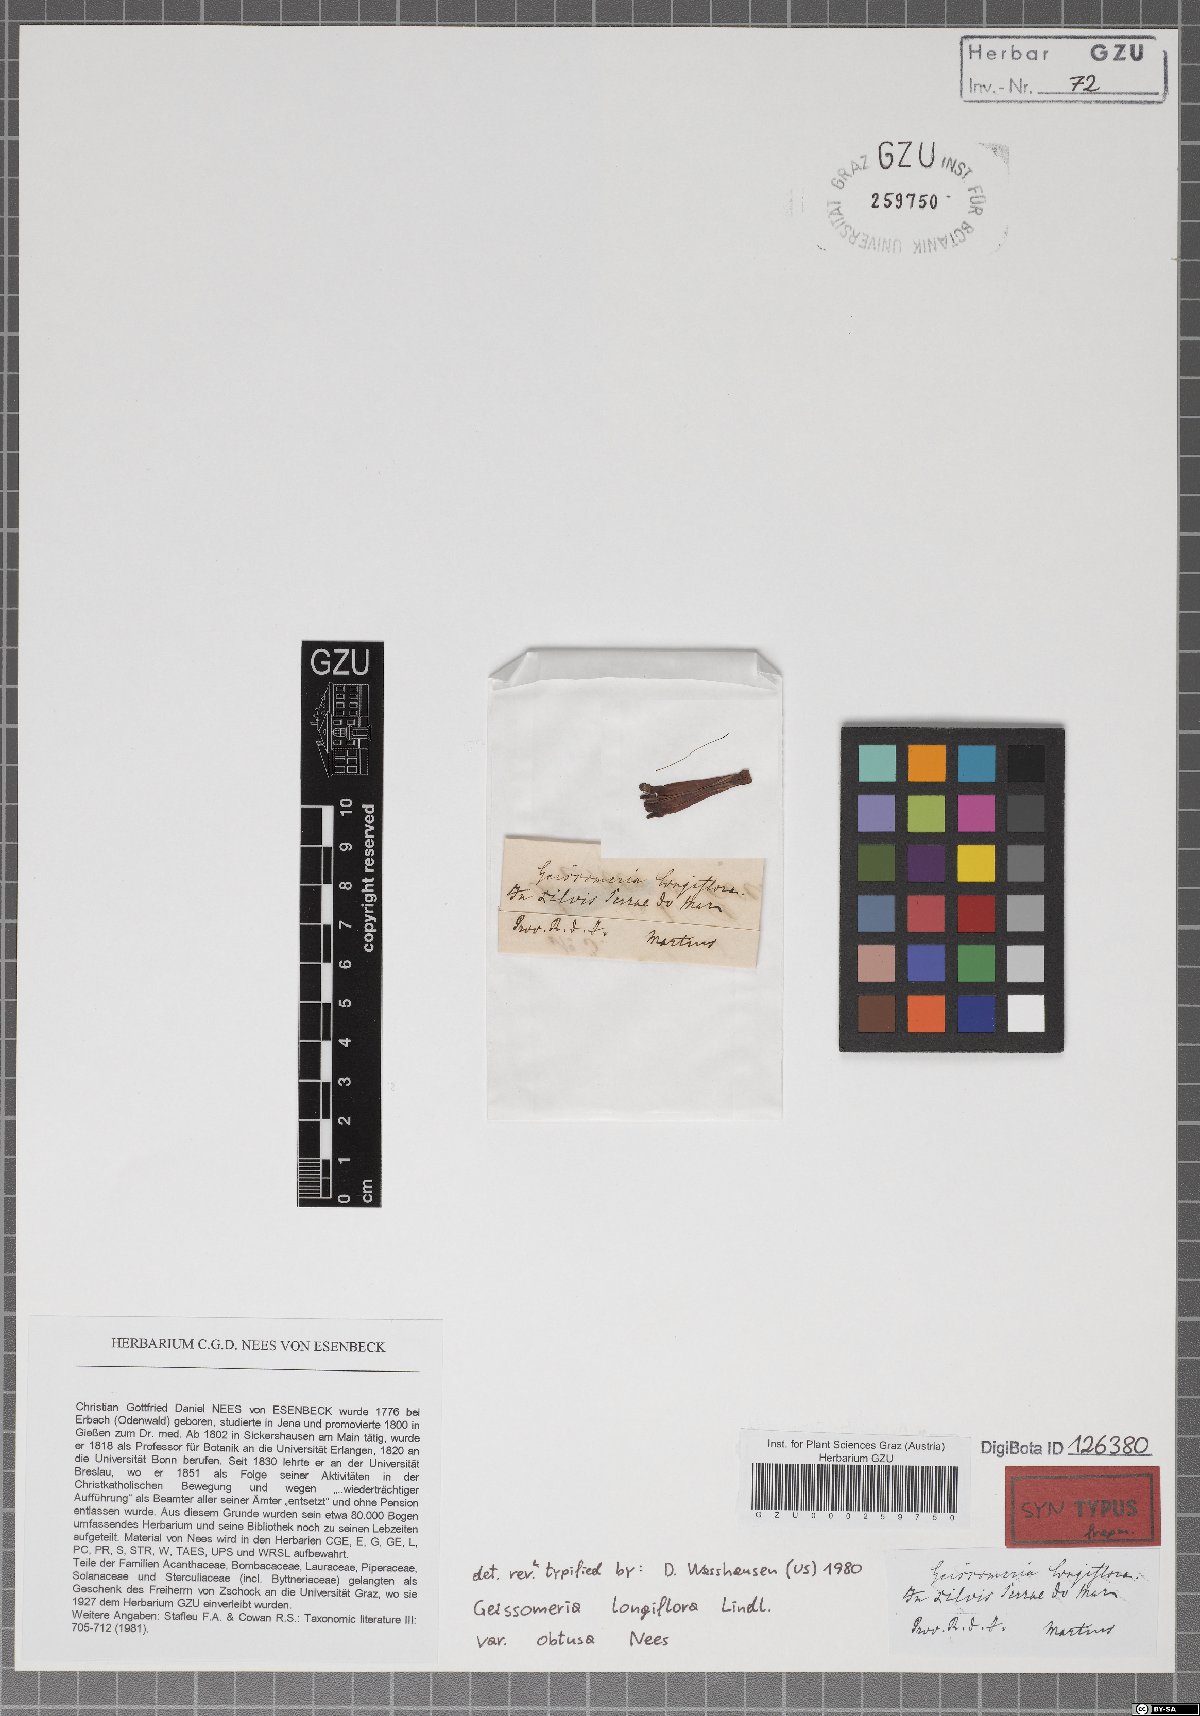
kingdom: Plantae
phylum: Tracheophyta
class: Magnoliopsida
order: Lamiales
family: Acanthaceae
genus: Aphelandra
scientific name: Aphelandra longiflora
